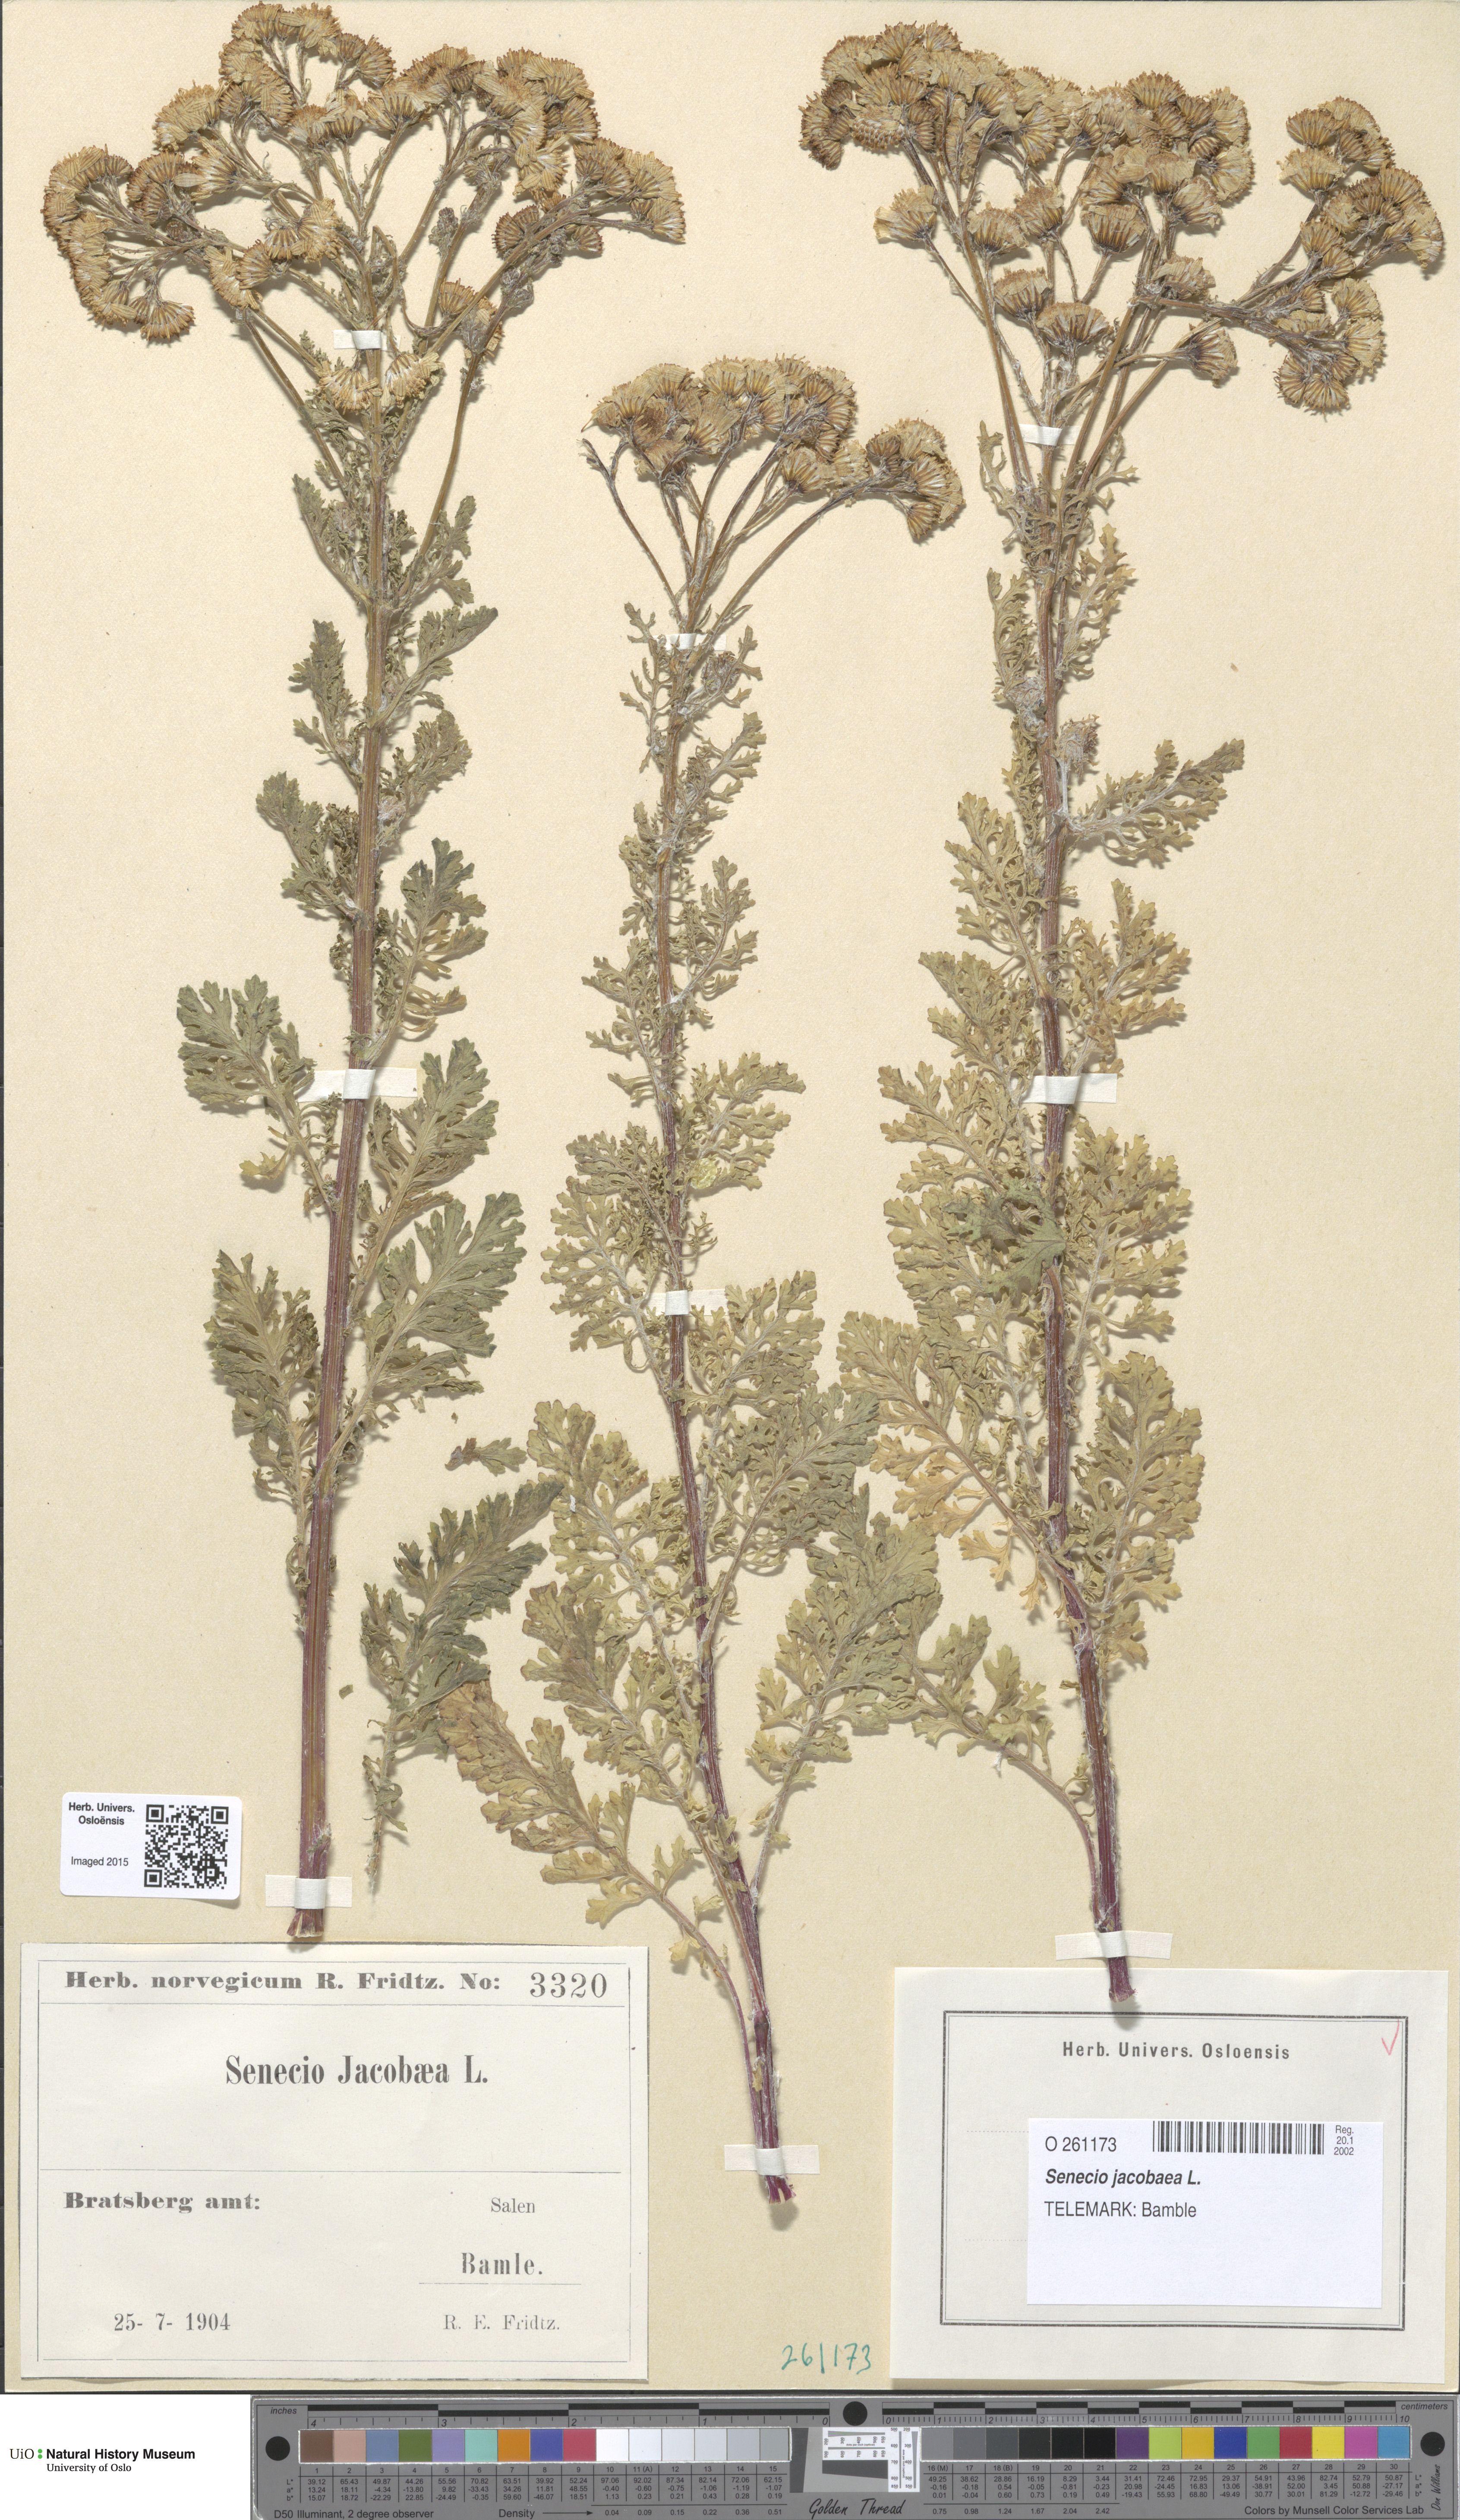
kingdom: Plantae
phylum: Tracheophyta
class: Magnoliopsida
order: Asterales
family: Asteraceae
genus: Jacobaea
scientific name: Jacobaea vulgaris
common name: Stinking willie
